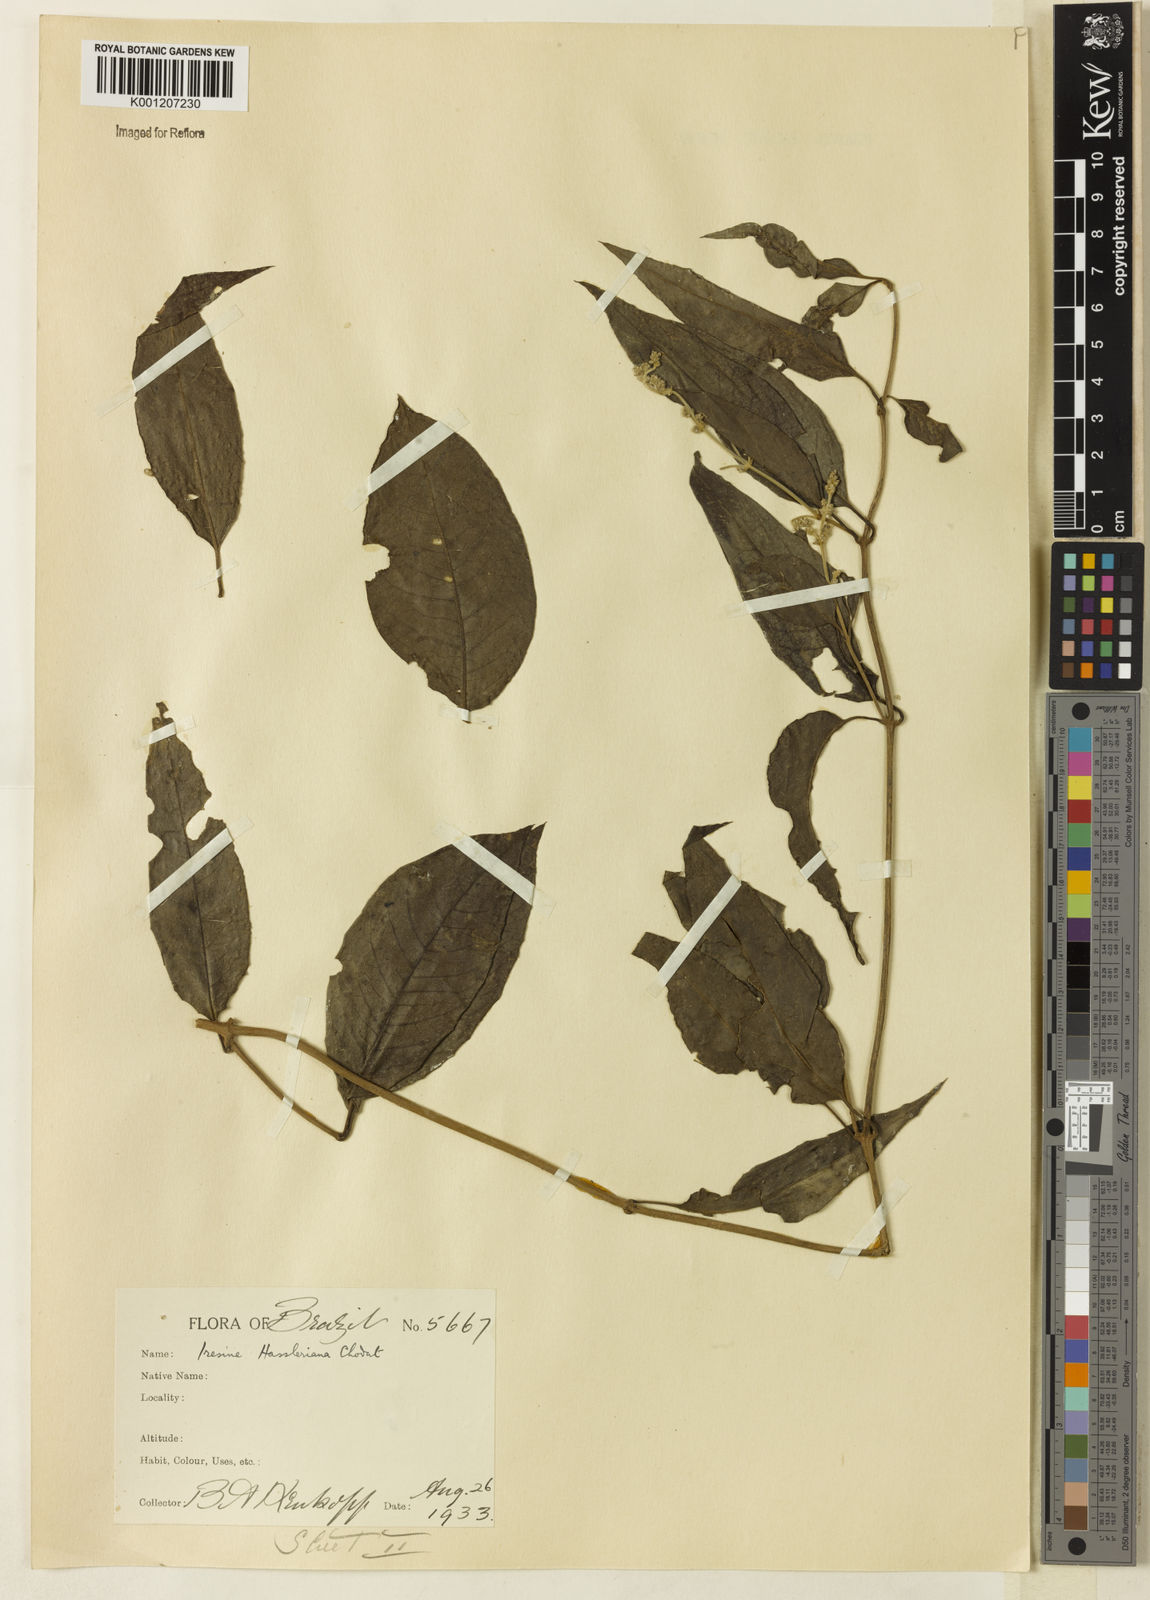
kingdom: Plantae
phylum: Tracheophyta
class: Magnoliopsida
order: Caryophyllales
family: Amaranthaceae
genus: Pedersenia
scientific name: Pedersenia hassleriana
